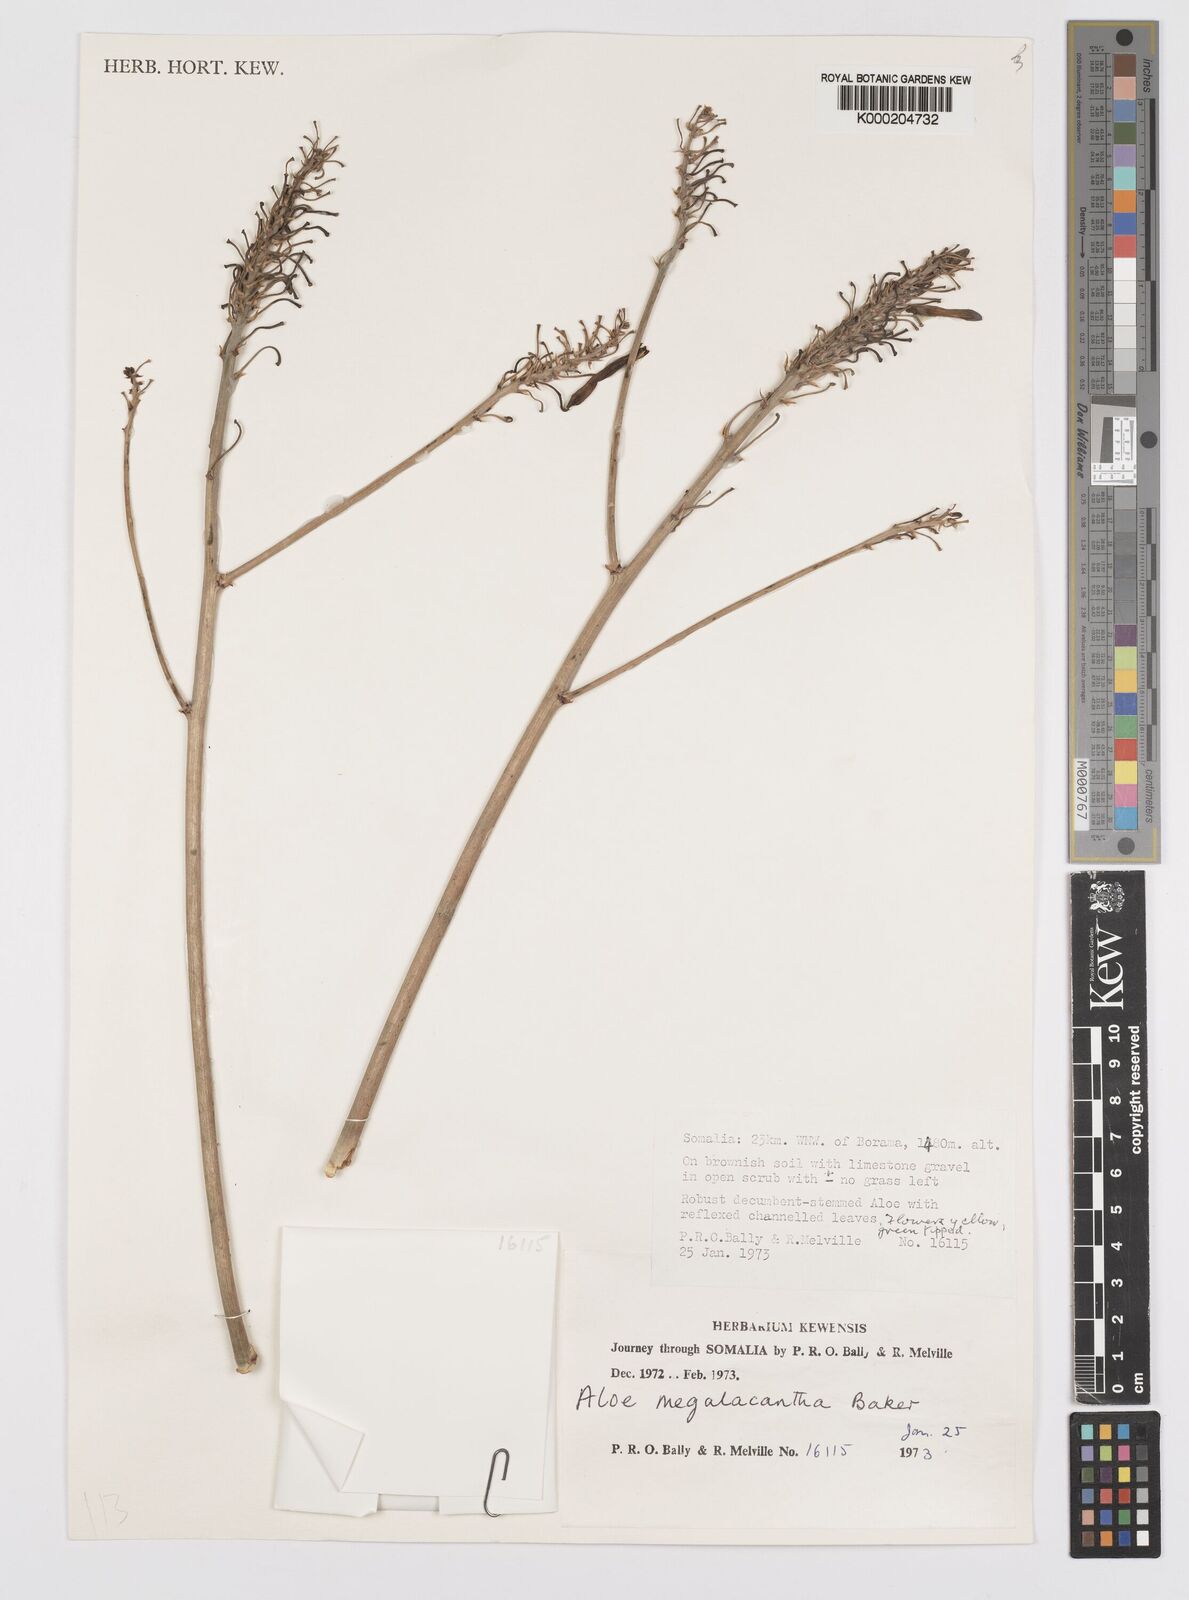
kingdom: Plantae
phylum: Tracheophyta
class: Liliopsida
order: Asparagales
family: Asphodelaceae
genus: Aloe
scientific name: Aloe megalacantha
